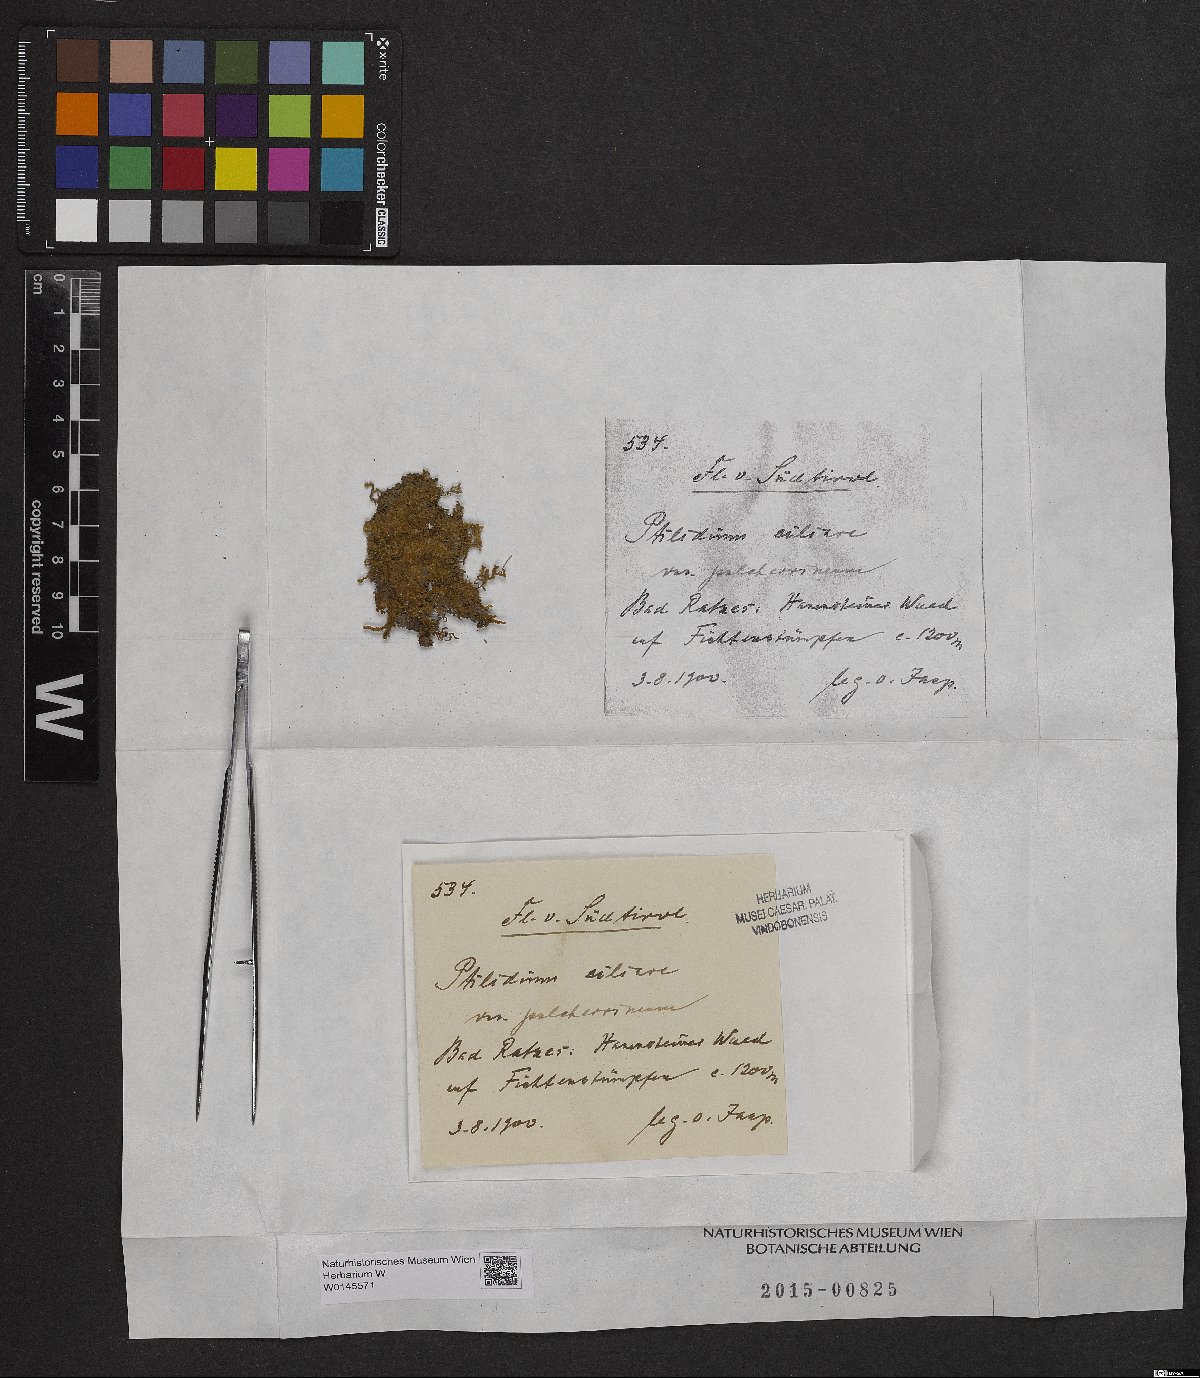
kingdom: Plantae
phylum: Marchantiophyta
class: Jungermanniopsida
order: Ptilidiales
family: Ptilidiaceae
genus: Ptilidium
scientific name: Ptilidium pulcherrimum
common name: Tree fringewort
